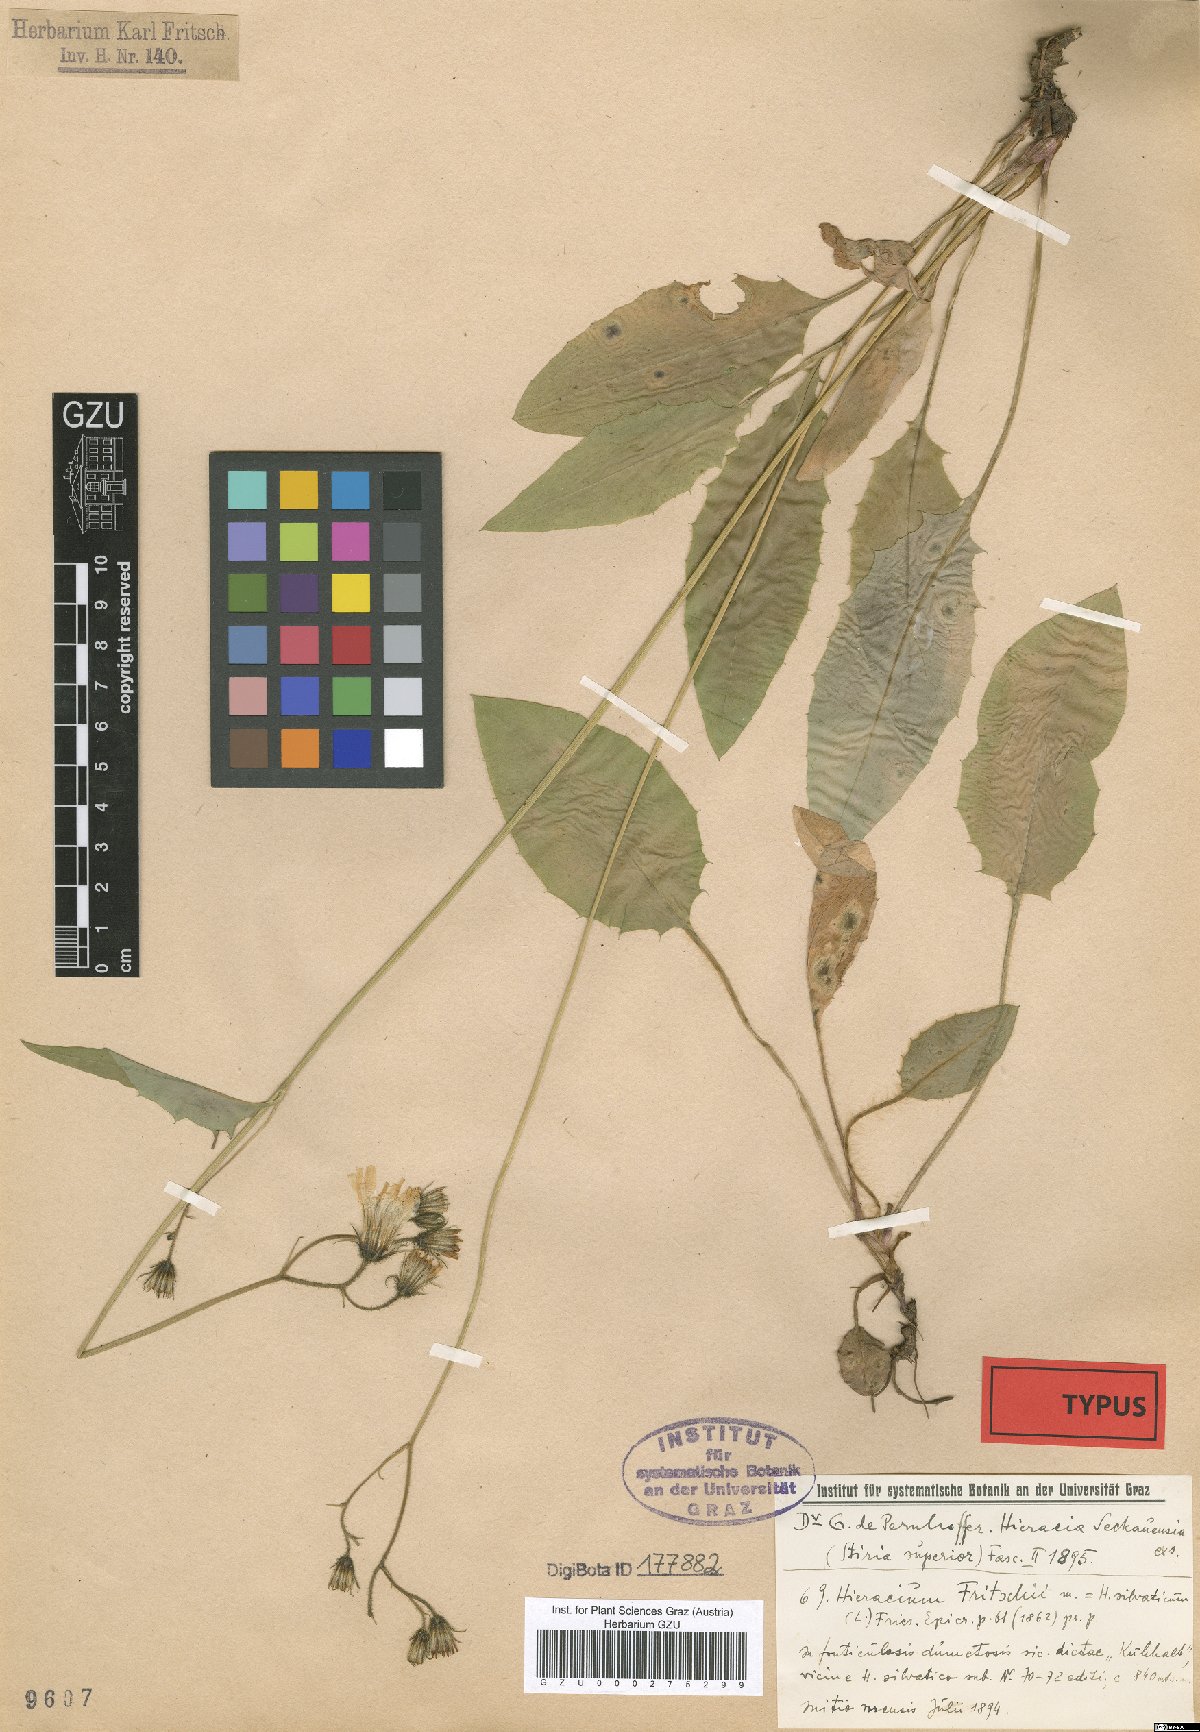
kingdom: Plantae
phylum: Tracheophyta
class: Magnoliopsida
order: Asterales
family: Asteraceae
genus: Hieracium
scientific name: Hieracium murorum
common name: Wall hawkweed
